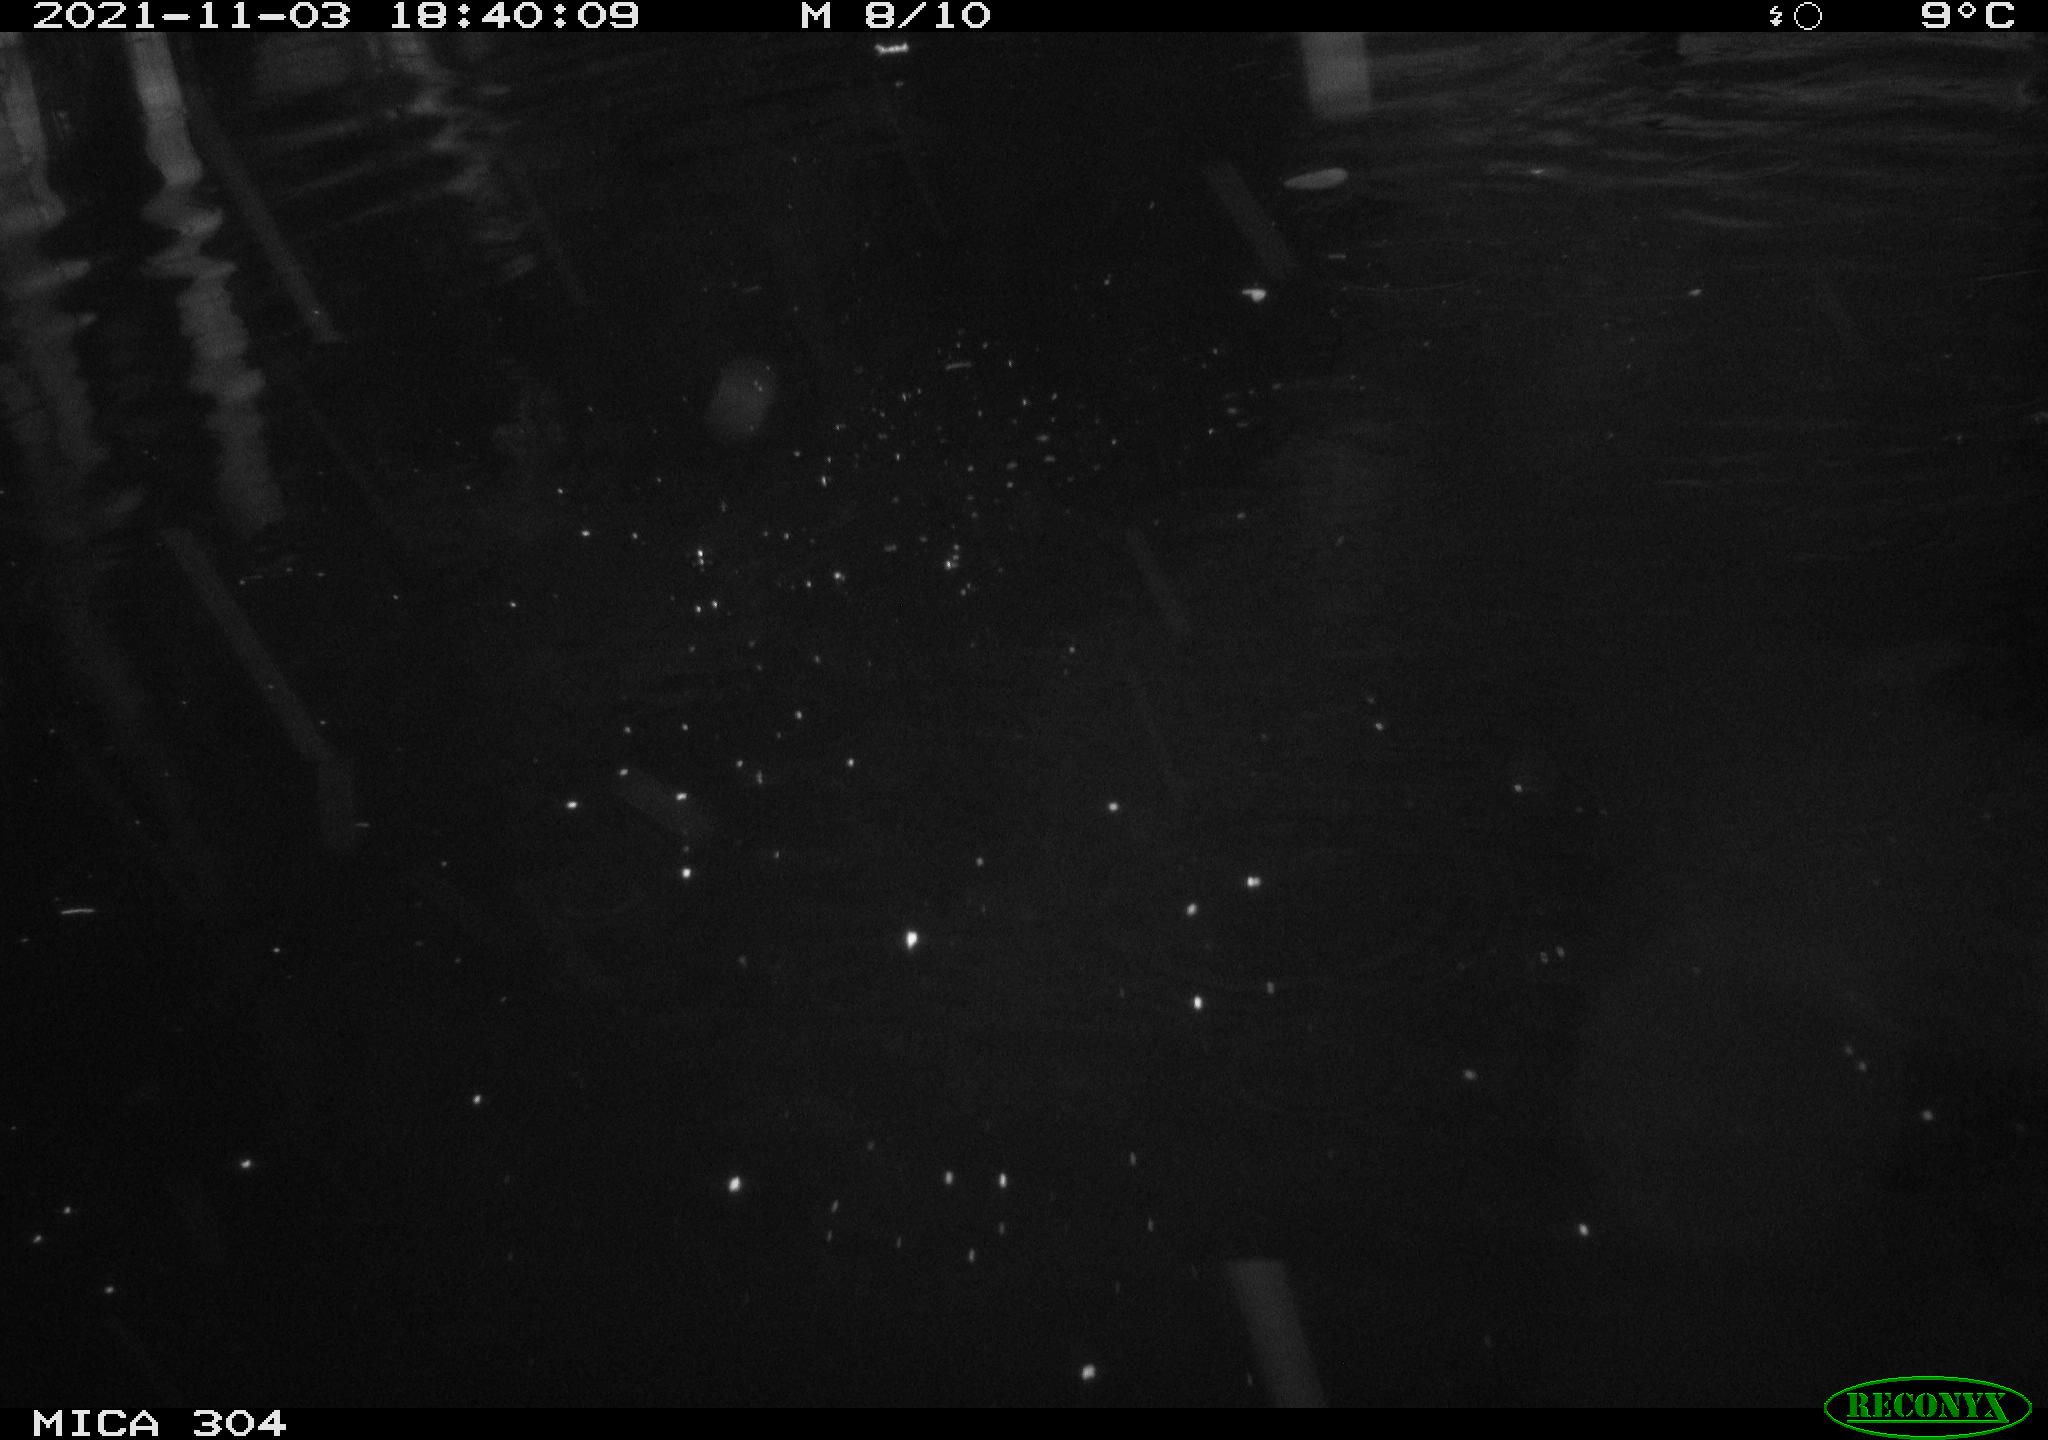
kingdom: Animalia
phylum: Chordata
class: Aves
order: Gruiformes
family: Rallidae
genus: Fulica
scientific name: Fulica atra
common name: Eurasian coot
